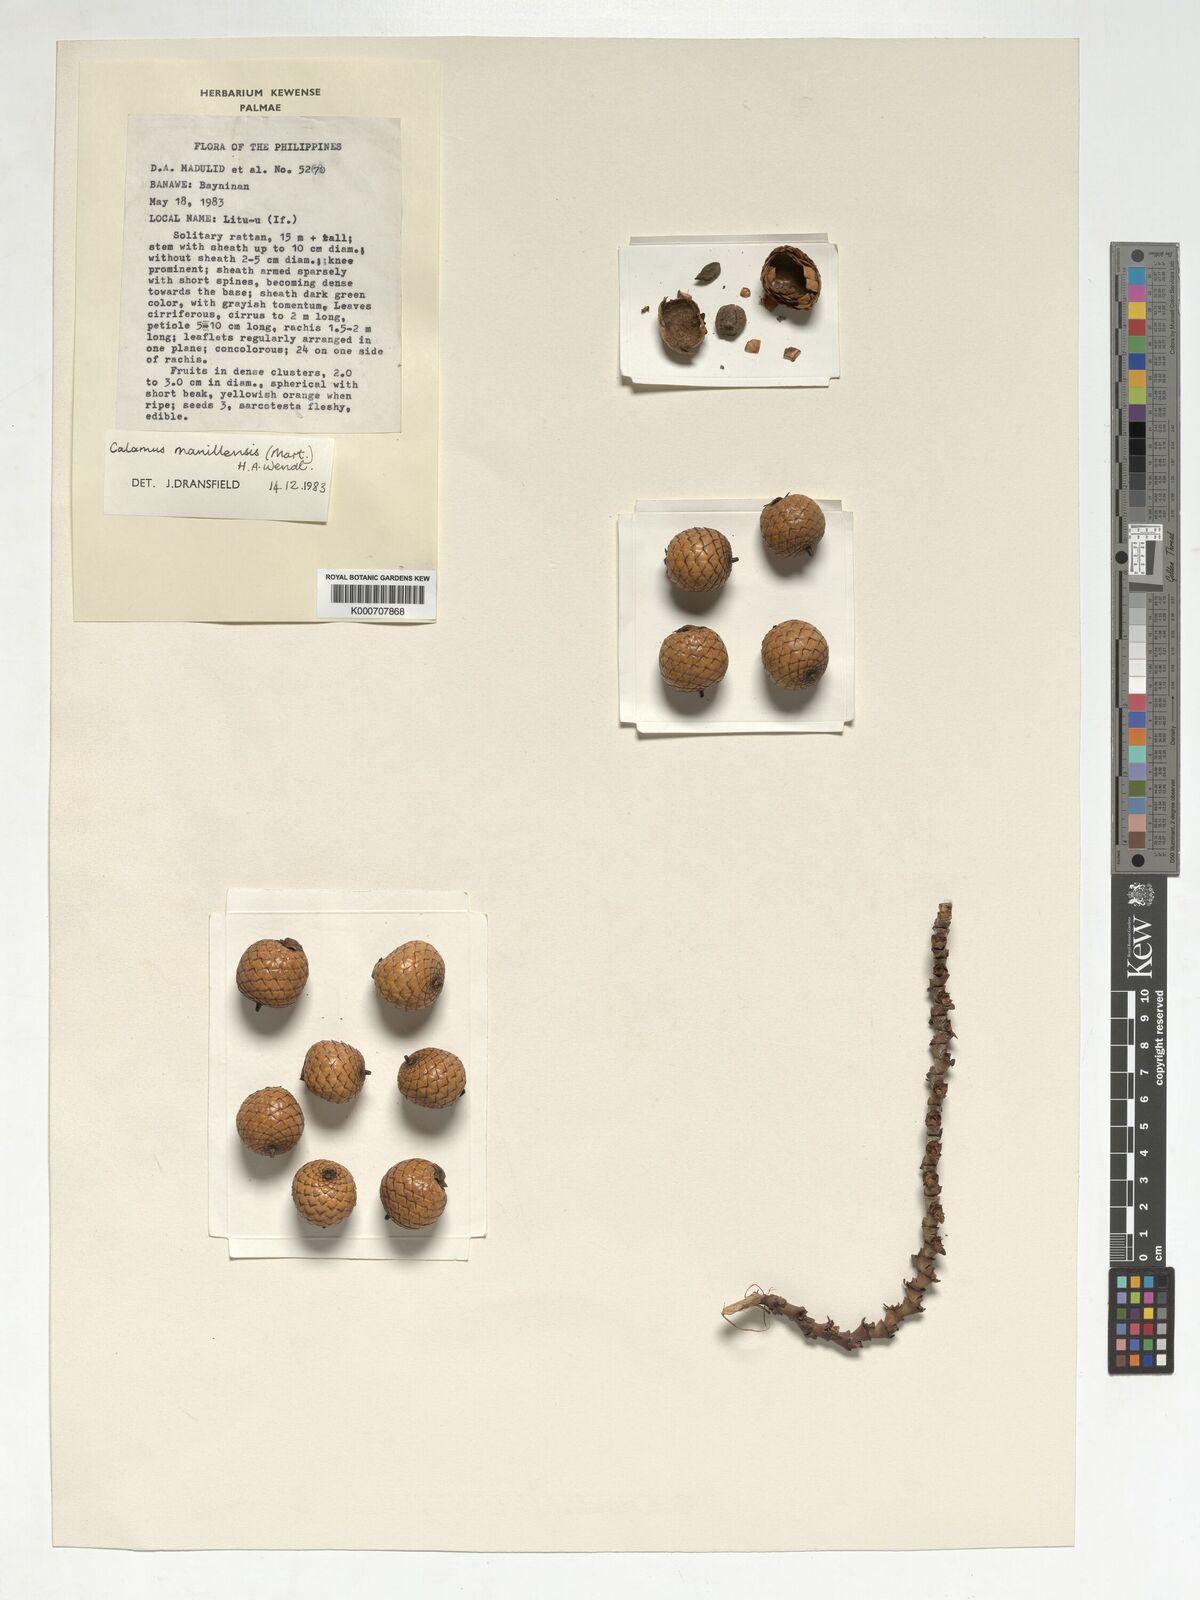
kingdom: Plantae
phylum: Tracheophyta
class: Liliopsida
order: Arecales
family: Arecaceae
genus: Calamus
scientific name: Calamus manillensis
